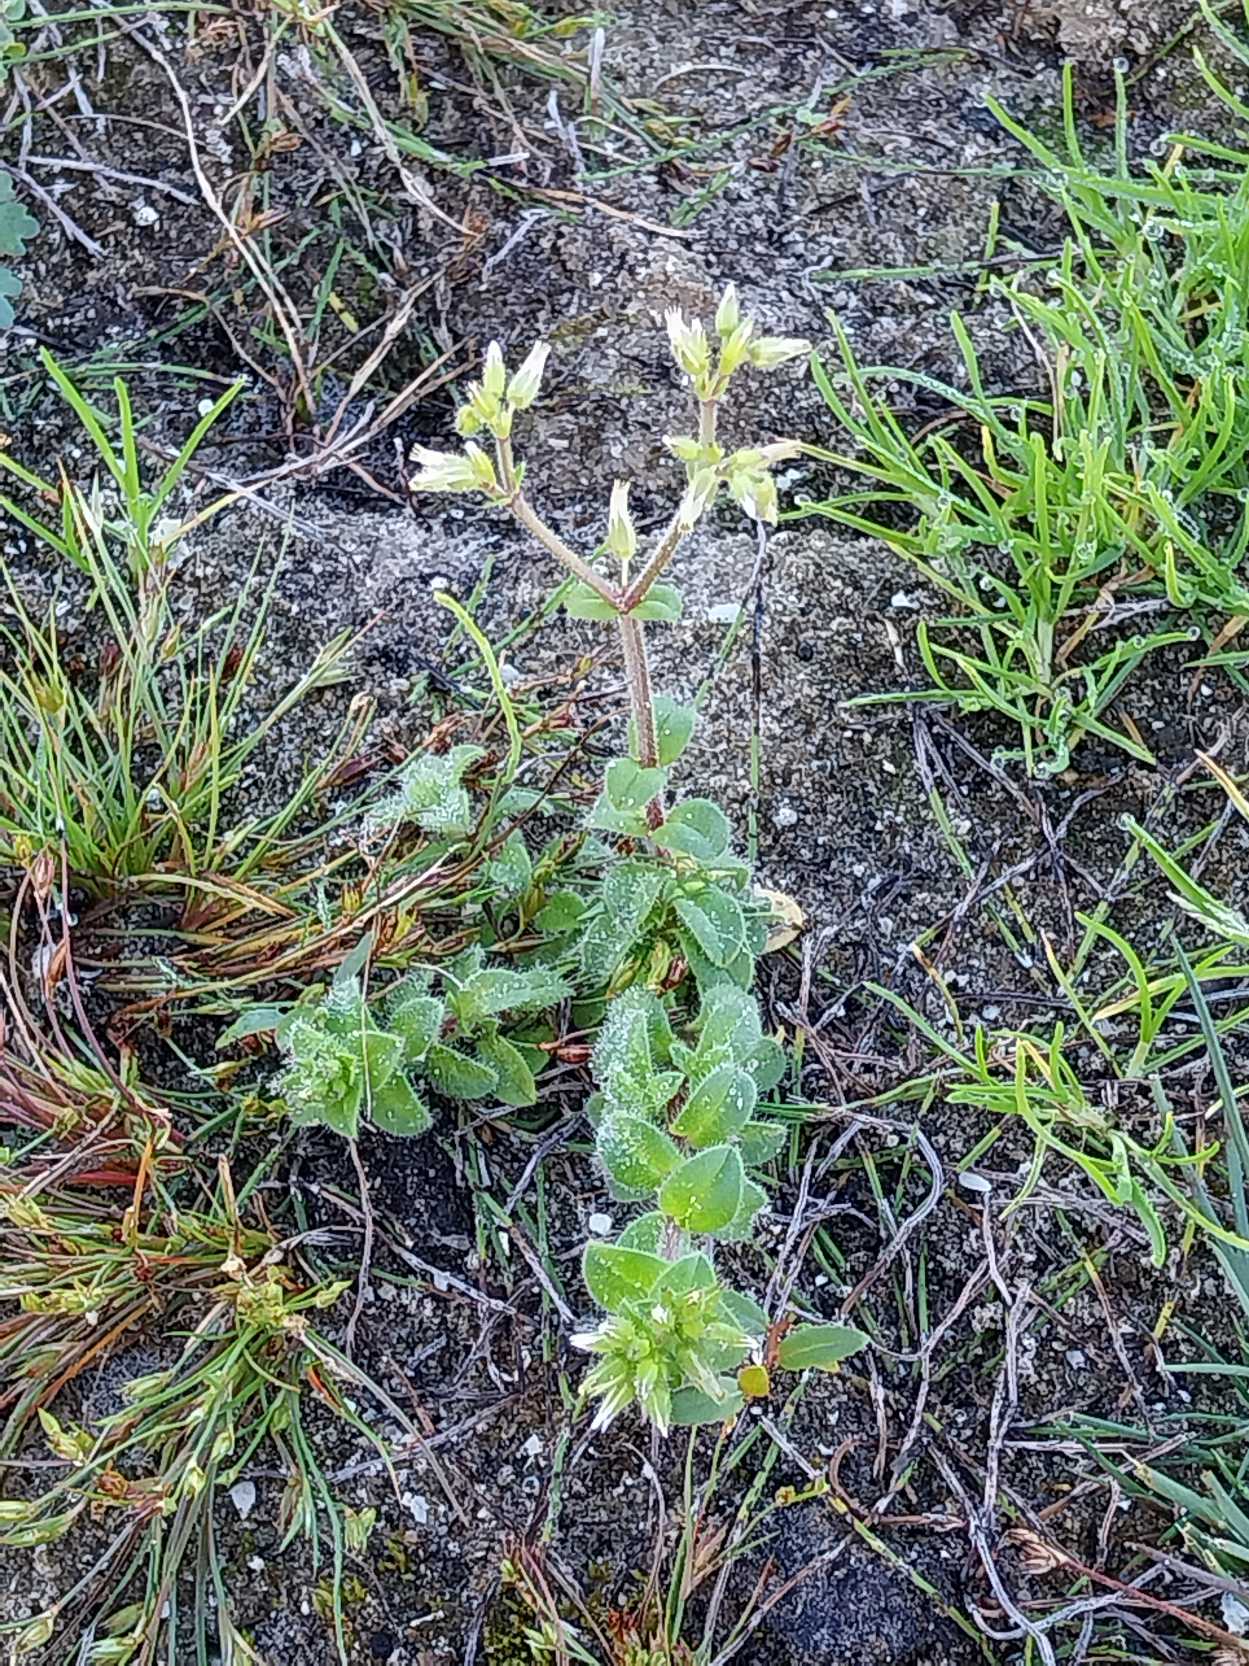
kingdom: Plantae
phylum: Tracheophyta
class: Magnoliopsida
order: Caryophyllales
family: Caryophyllaceae
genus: Cerastium
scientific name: Cerastium glomeratum
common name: Opret hønsetarm
